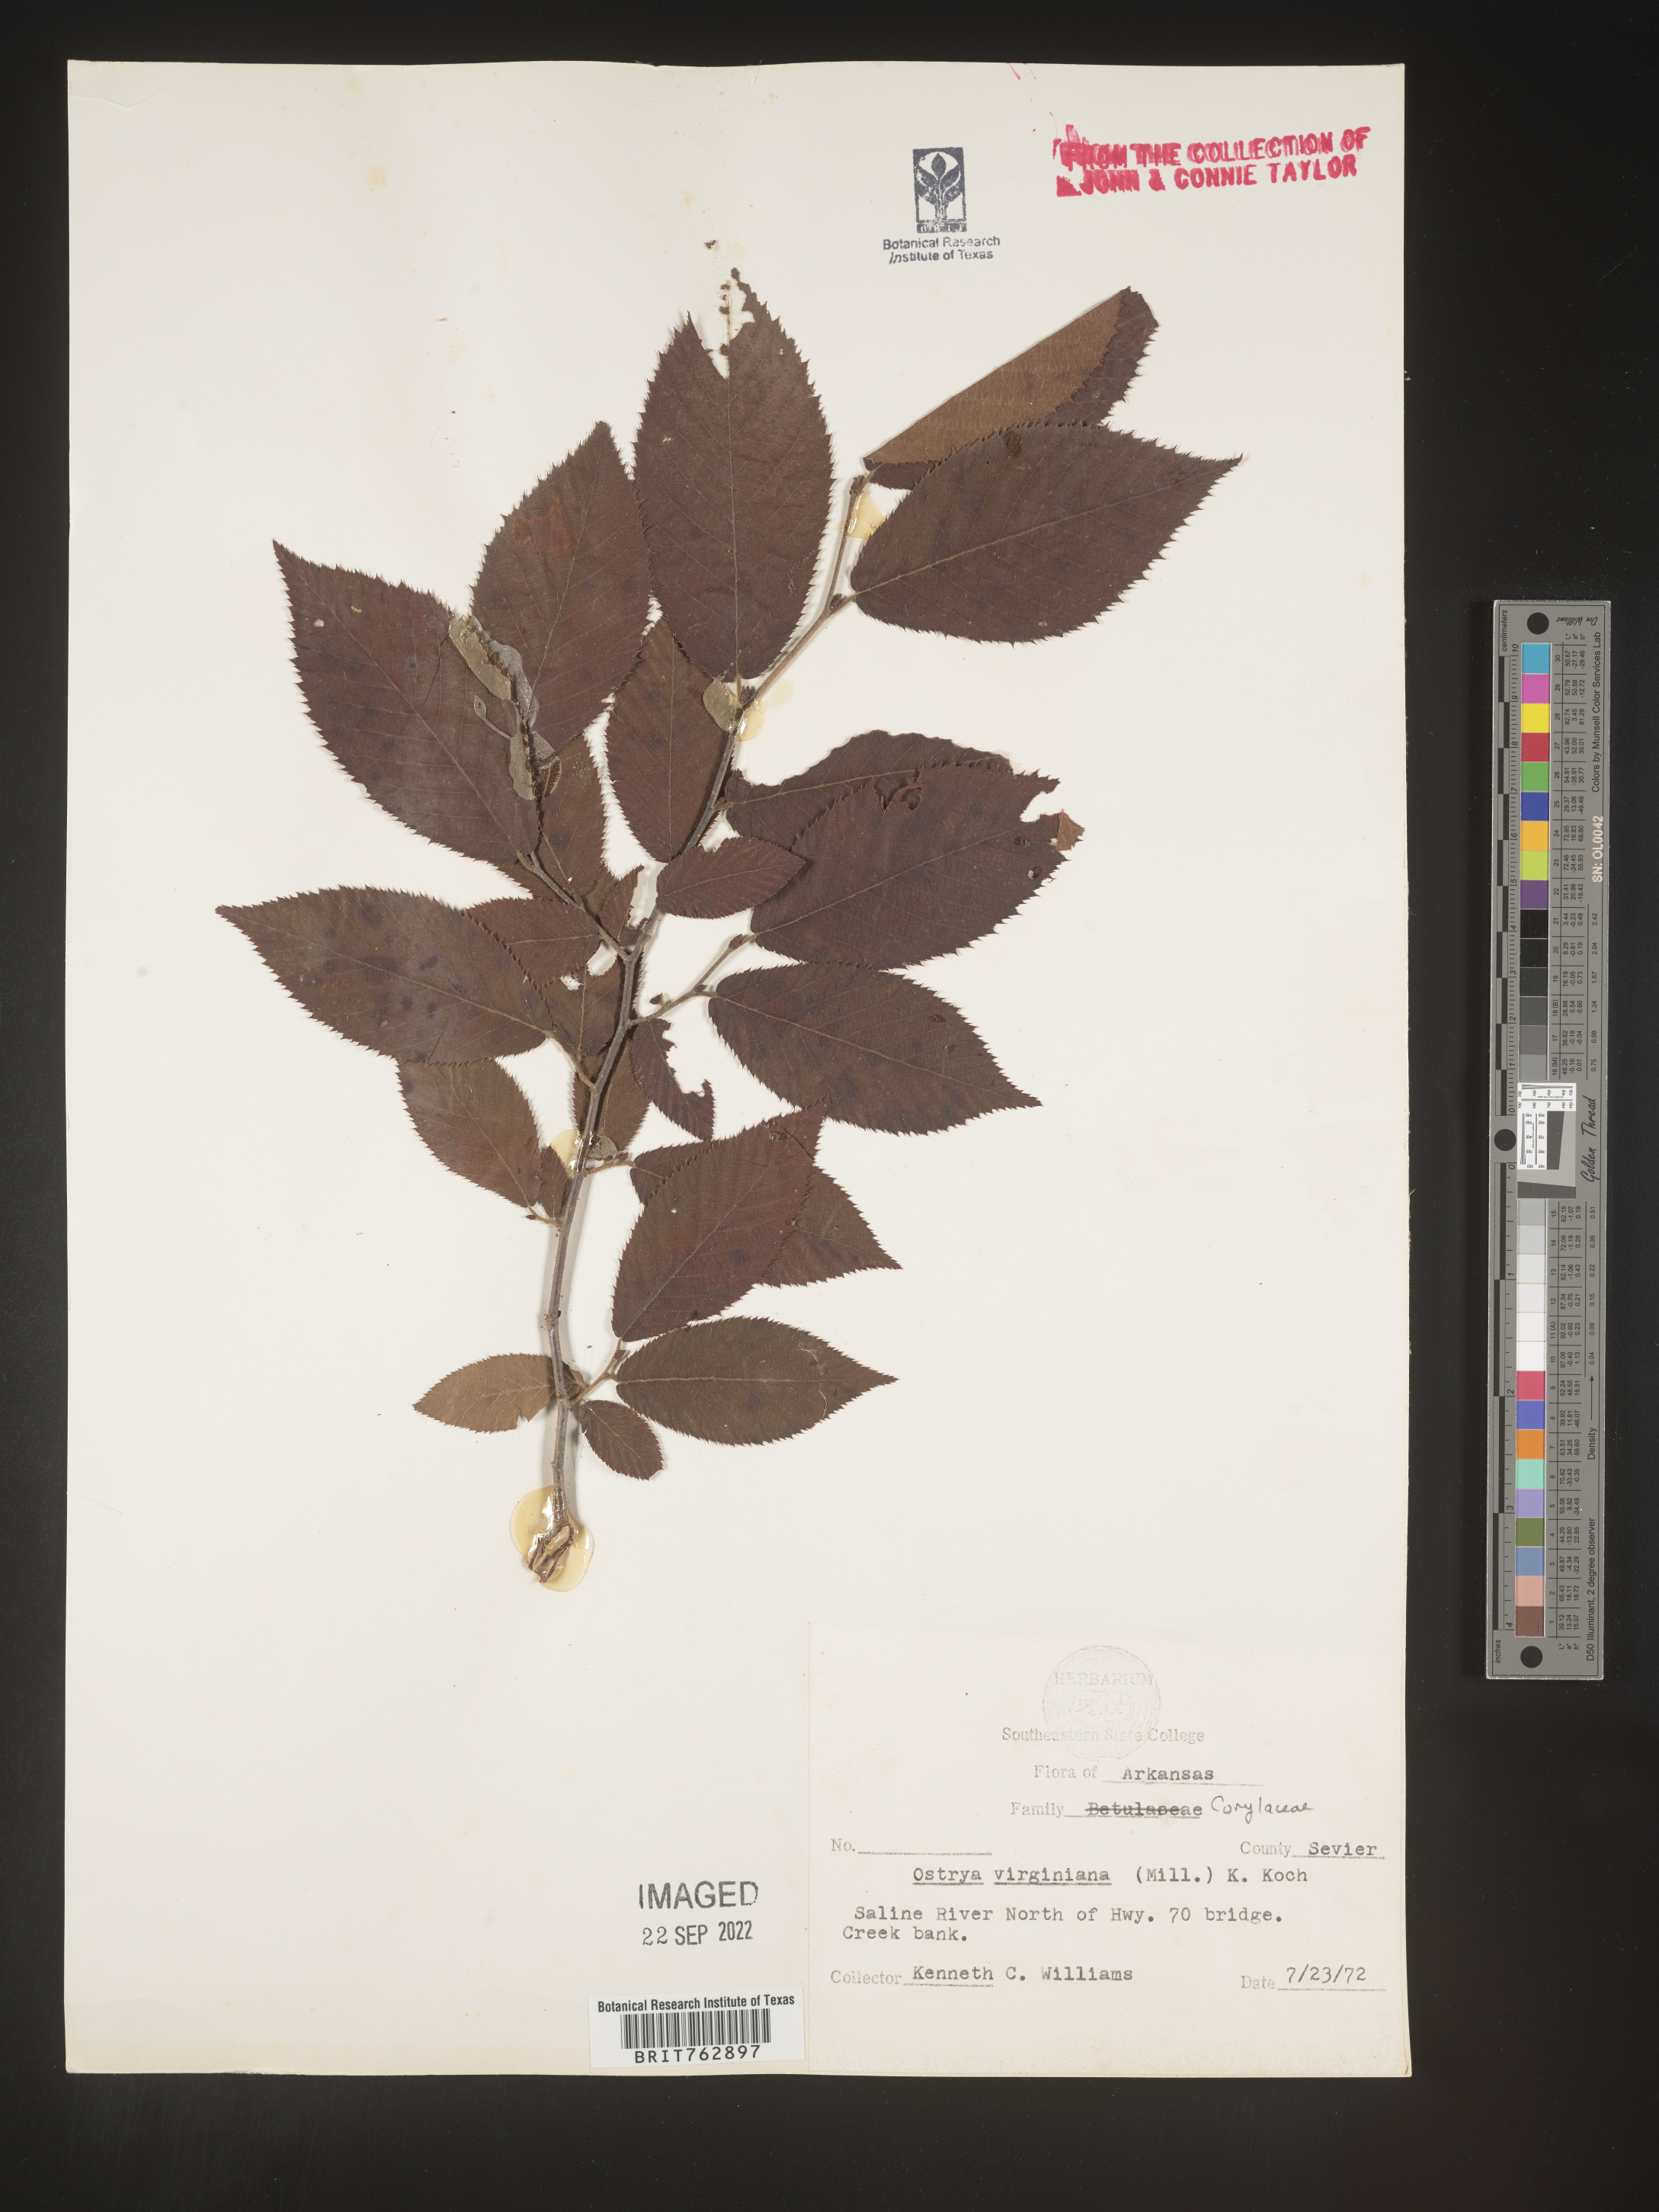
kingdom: Plantae
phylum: Tracheophyta
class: Magnoliopsida
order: Fagales
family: Betulaceae
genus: Ostrya
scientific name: Ostrya virginiana
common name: Ironwood
